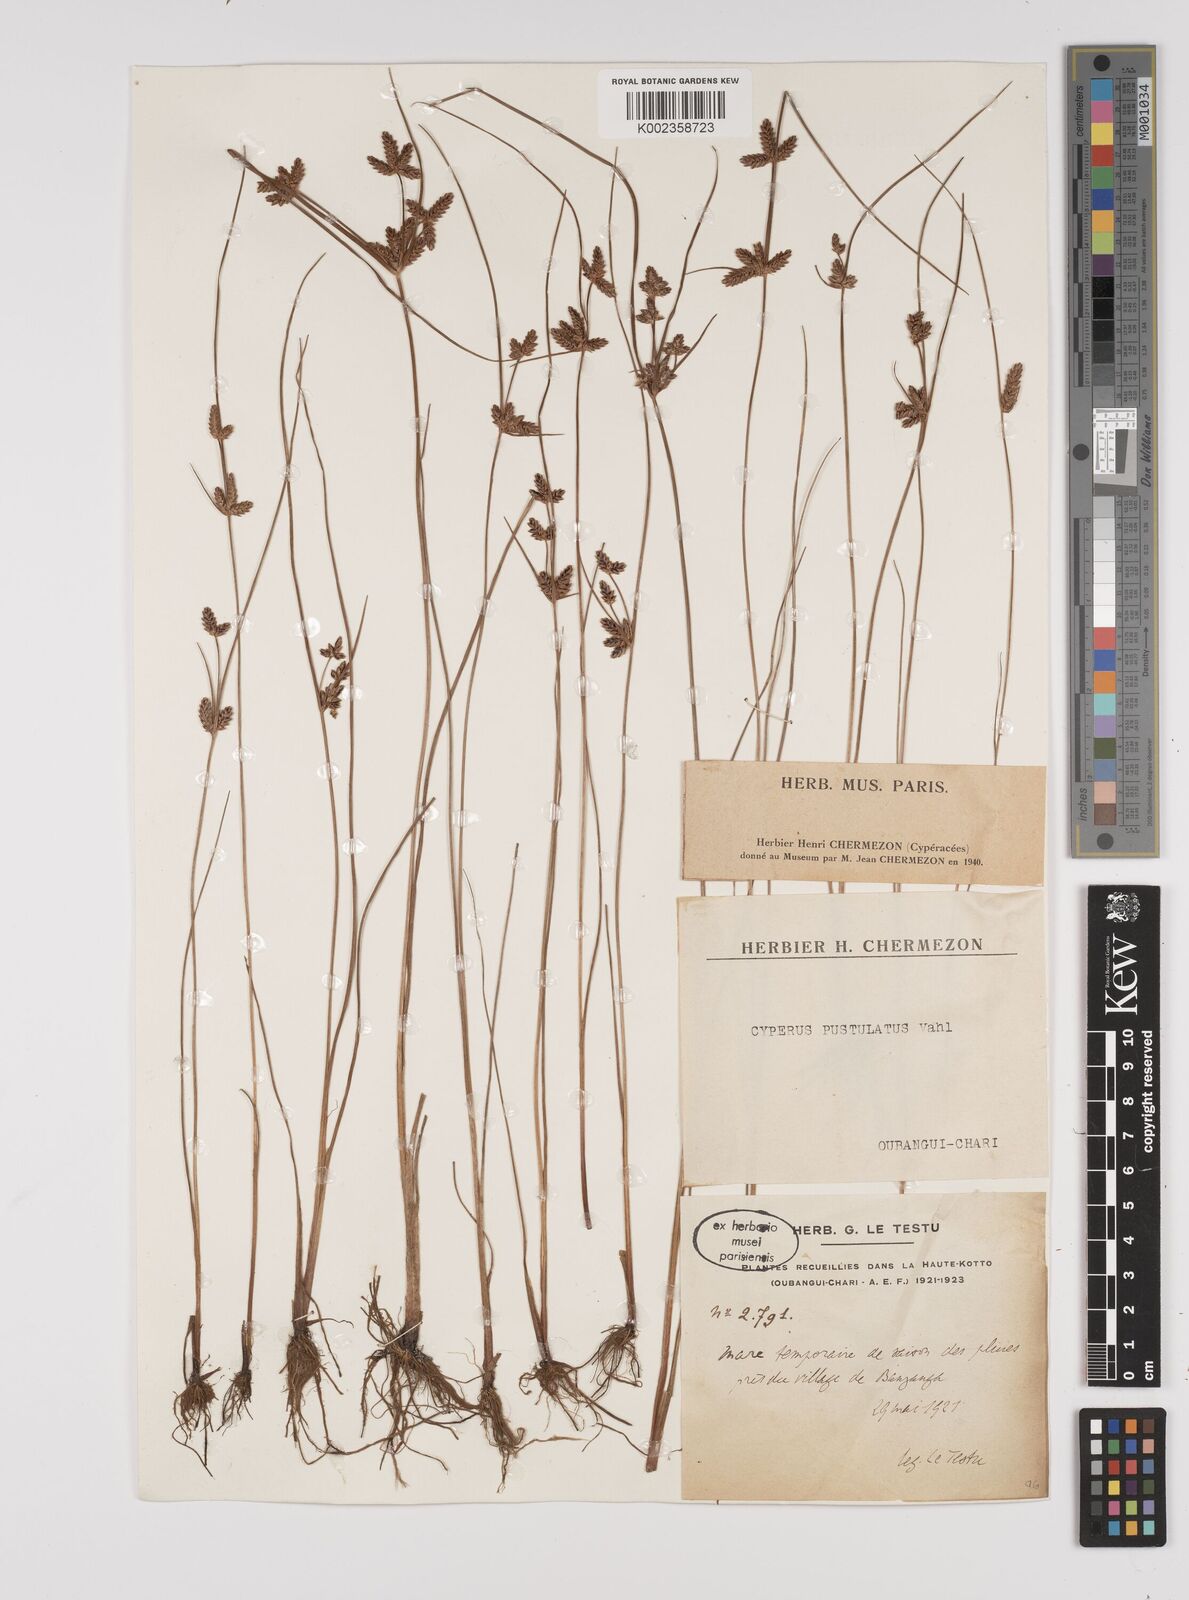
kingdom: Plantae
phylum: Tracheophyta
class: Liliopsida
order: Poales
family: Cyperaceae
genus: Cyperus
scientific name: Cyperus pustulatus
